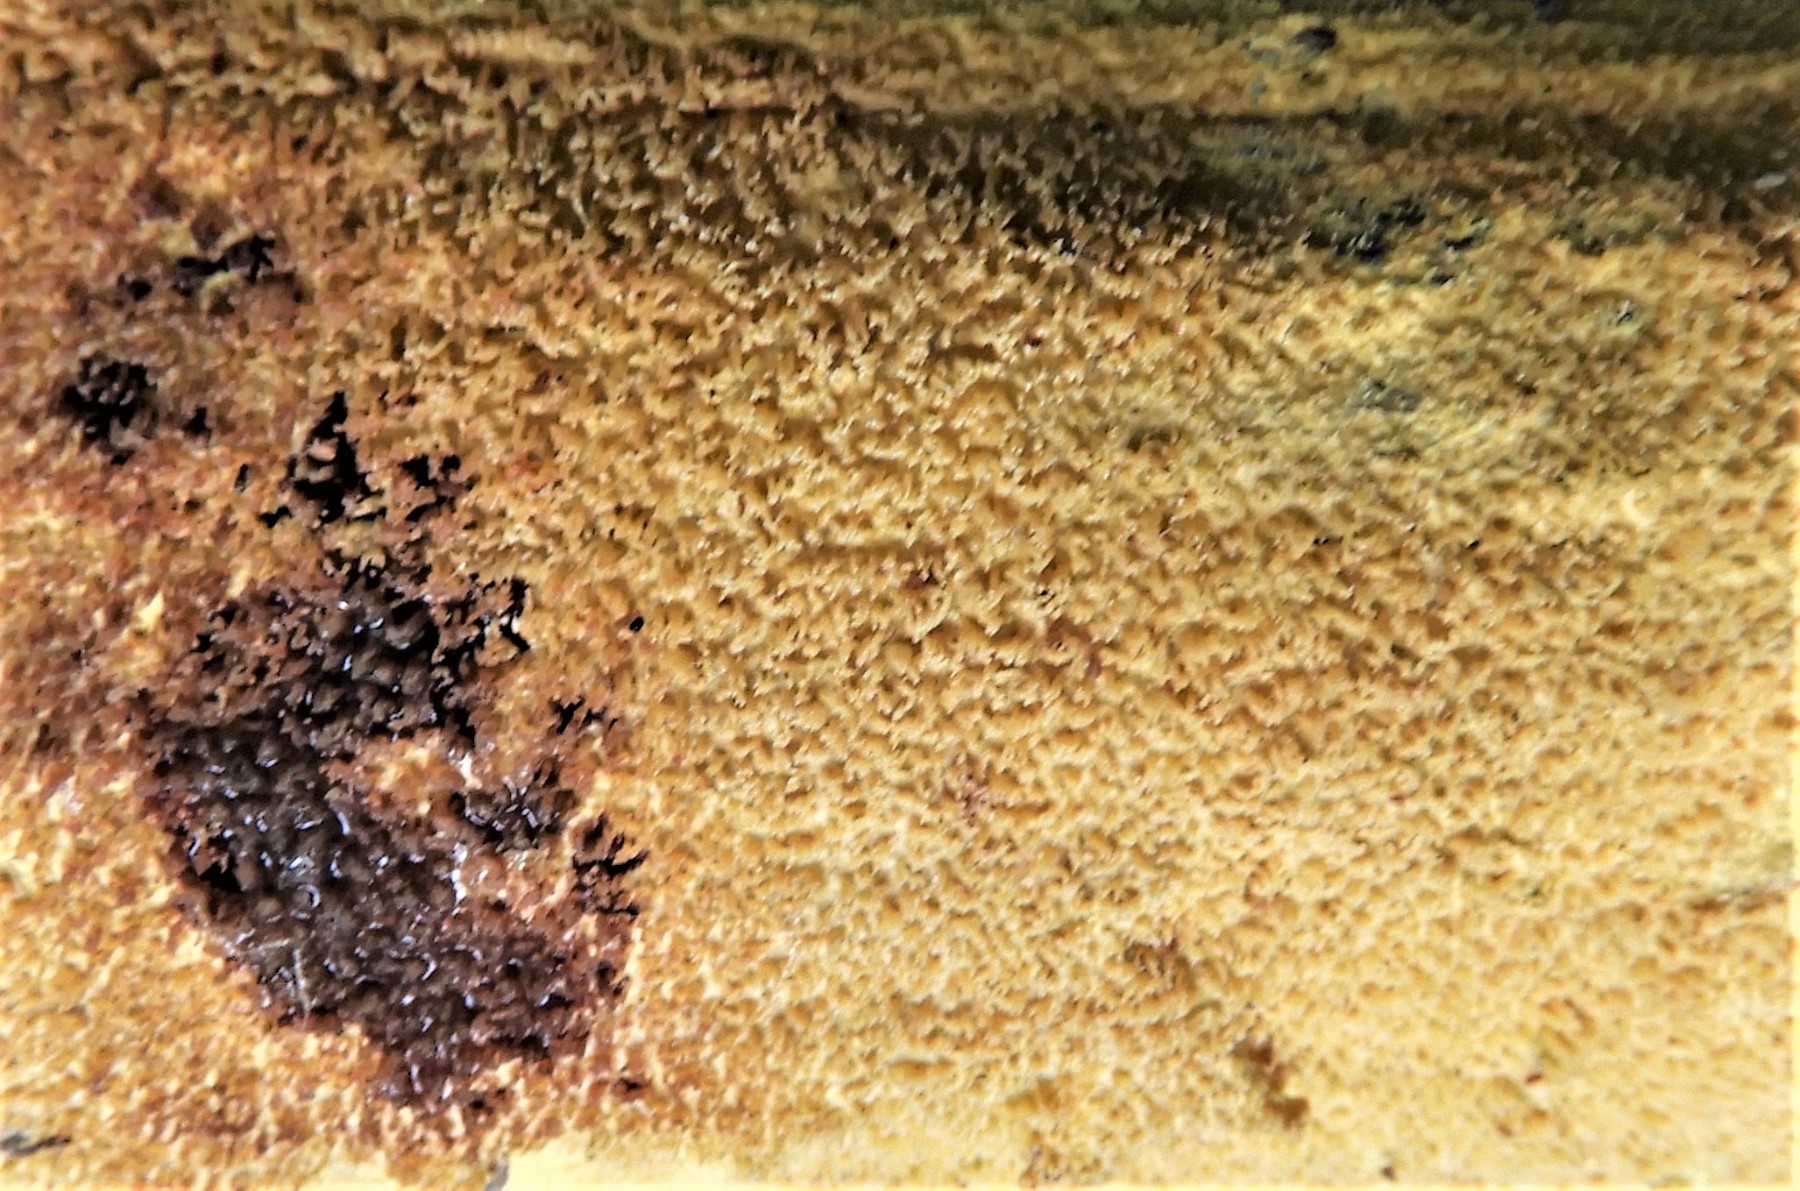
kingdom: Fungi
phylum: Basidiomycota
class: Agaricomycetes
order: Polyporales
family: Meruliaceae
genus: Mycoacia
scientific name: Mycoacia uda
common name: citrongul vokspig
